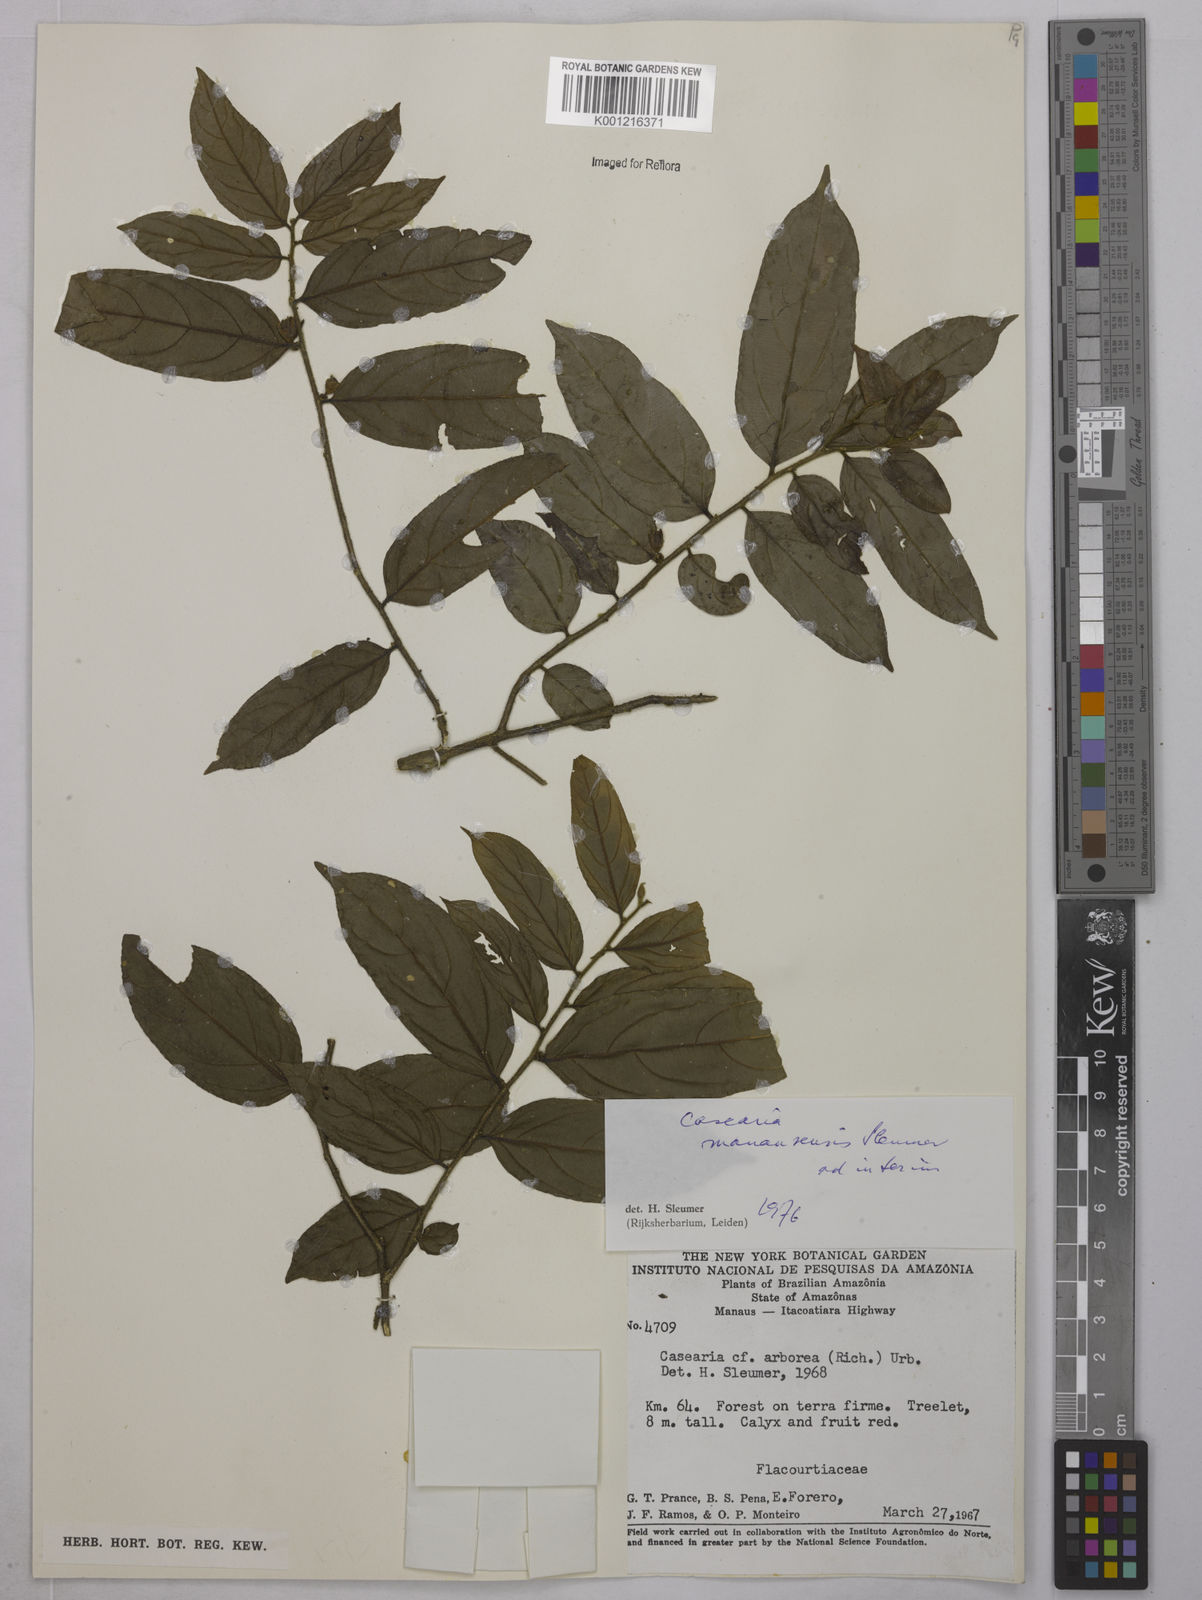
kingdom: Plantae
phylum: Tracheophyta
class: Magnoliopsida
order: Malpighiales
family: Salicaceae
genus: Casearia
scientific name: Casearia manausensis
